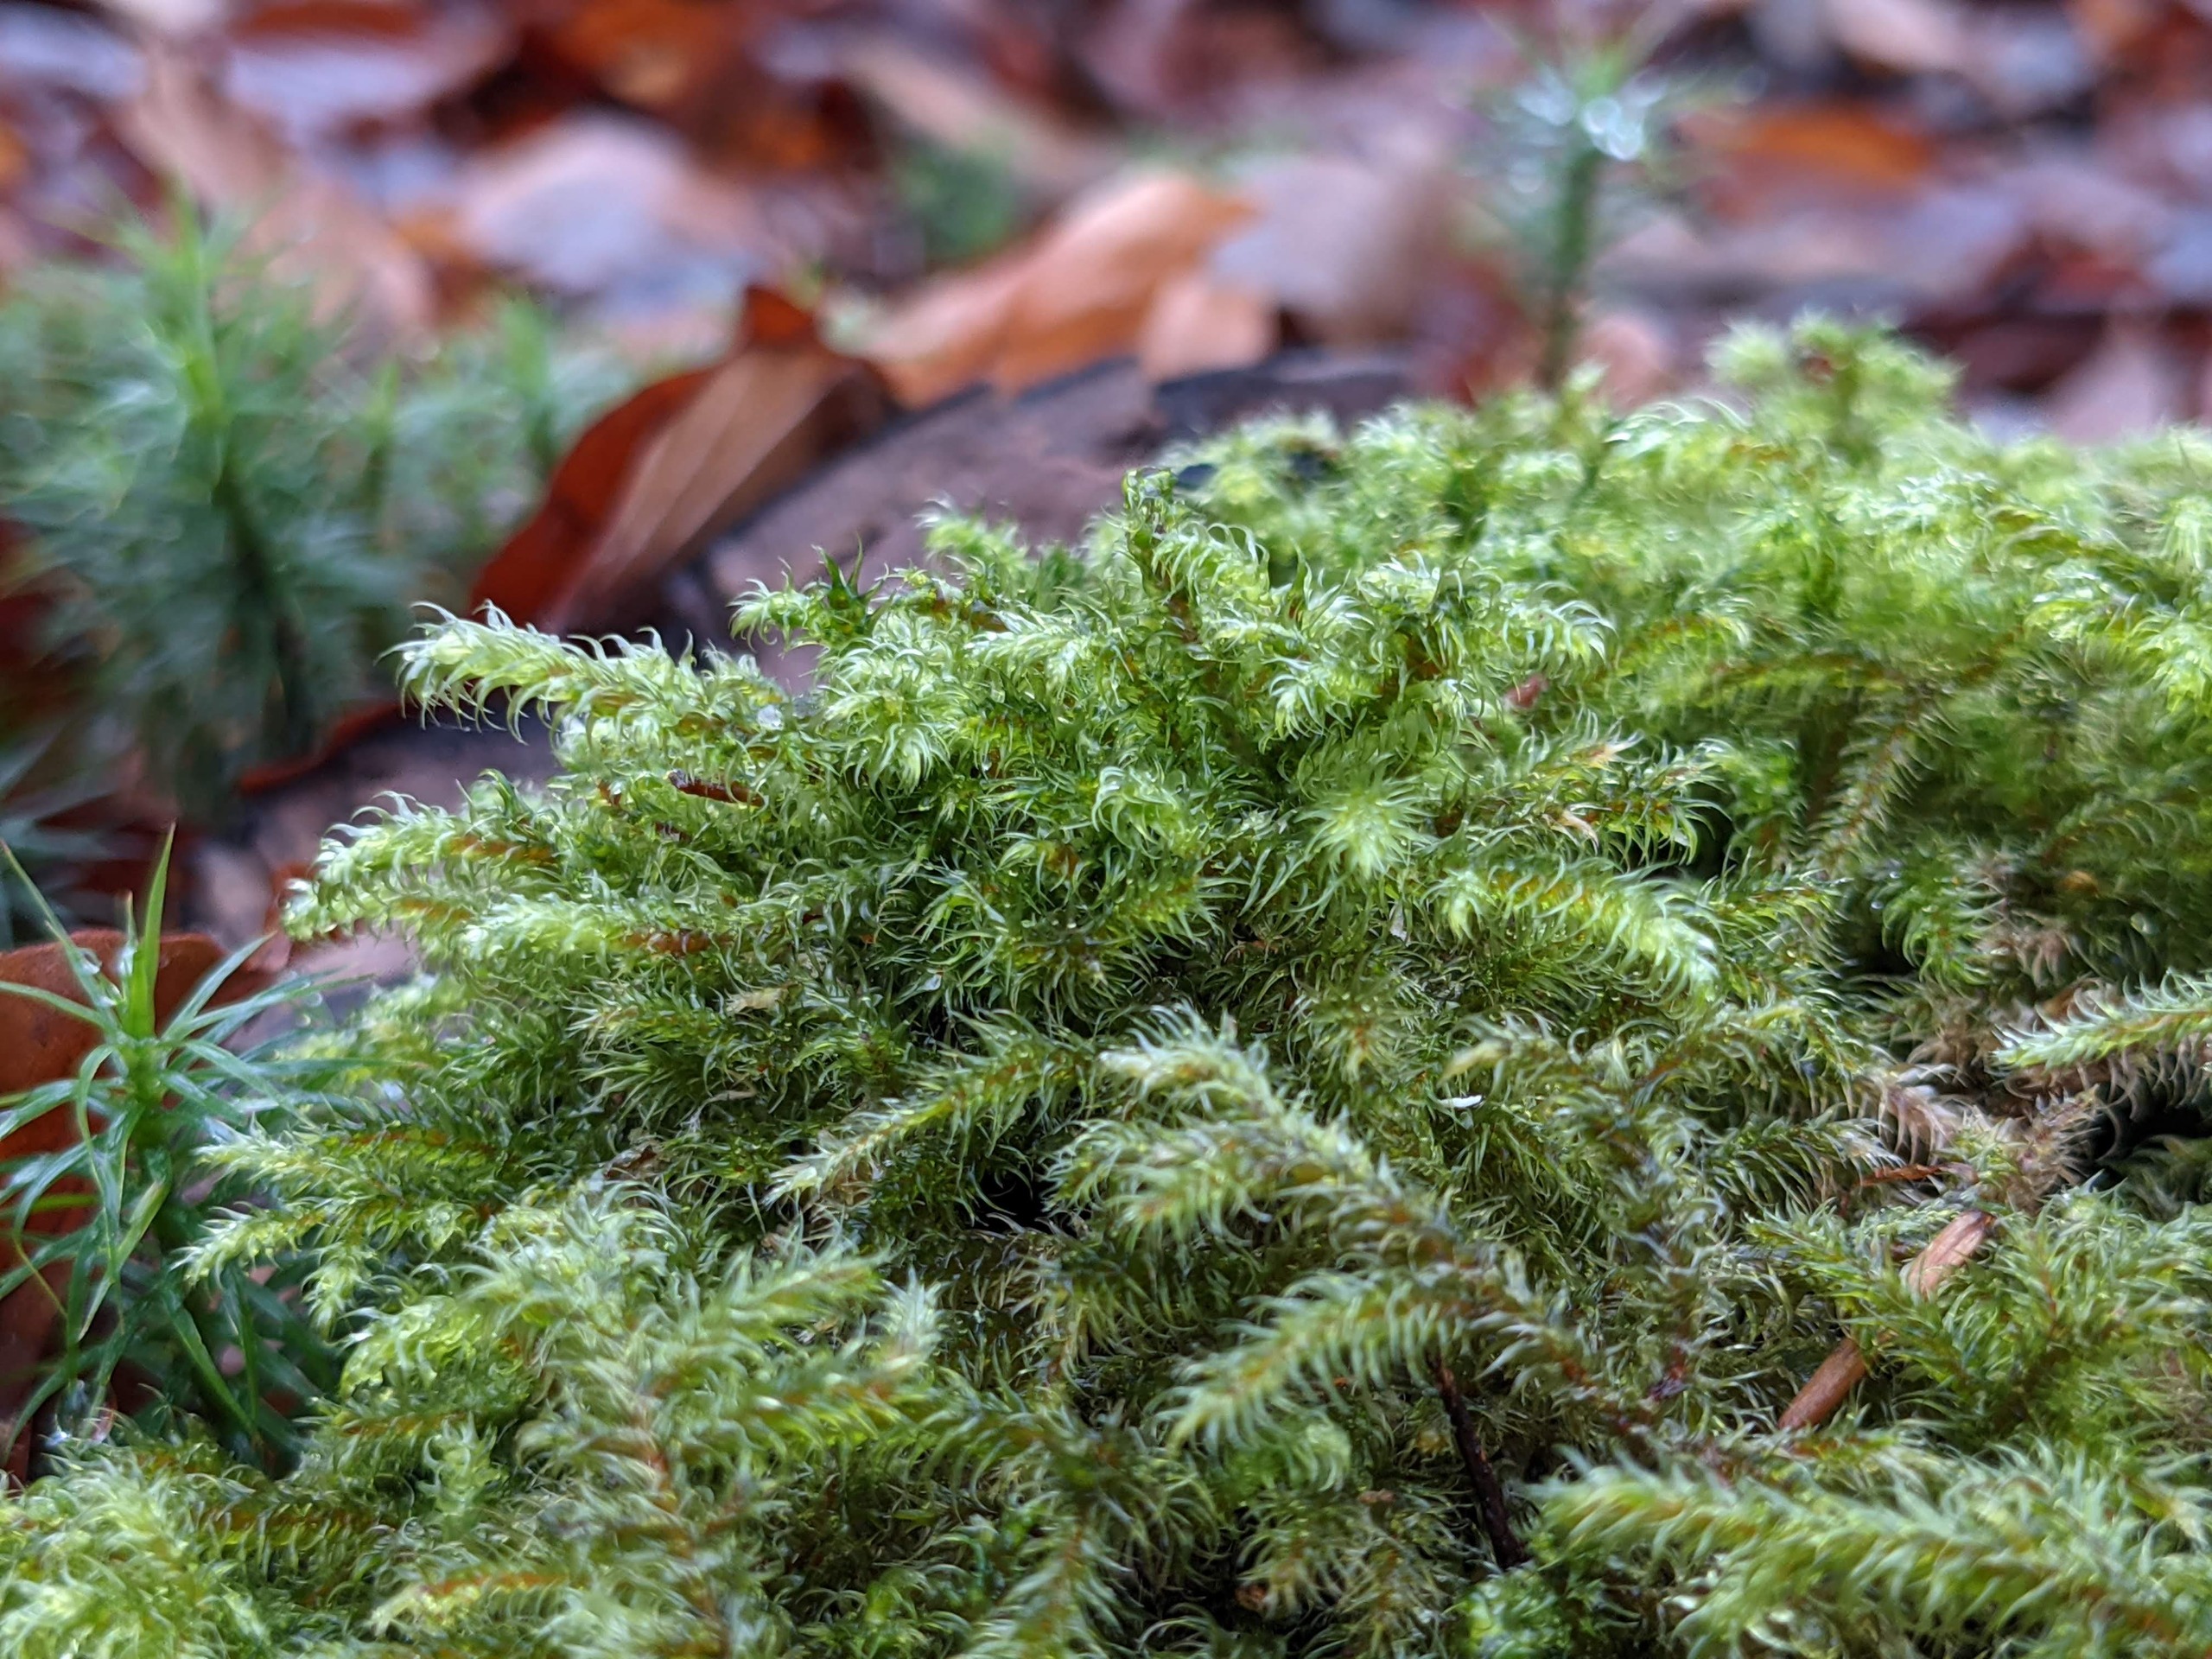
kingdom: Plantae
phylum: Bryophyta
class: Bryopsida
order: Hypnales
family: Hylocomiaceae
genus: Rhytidiadelphus
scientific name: Rhytidiadelphus loreus
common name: Ulvefod-kransemos
